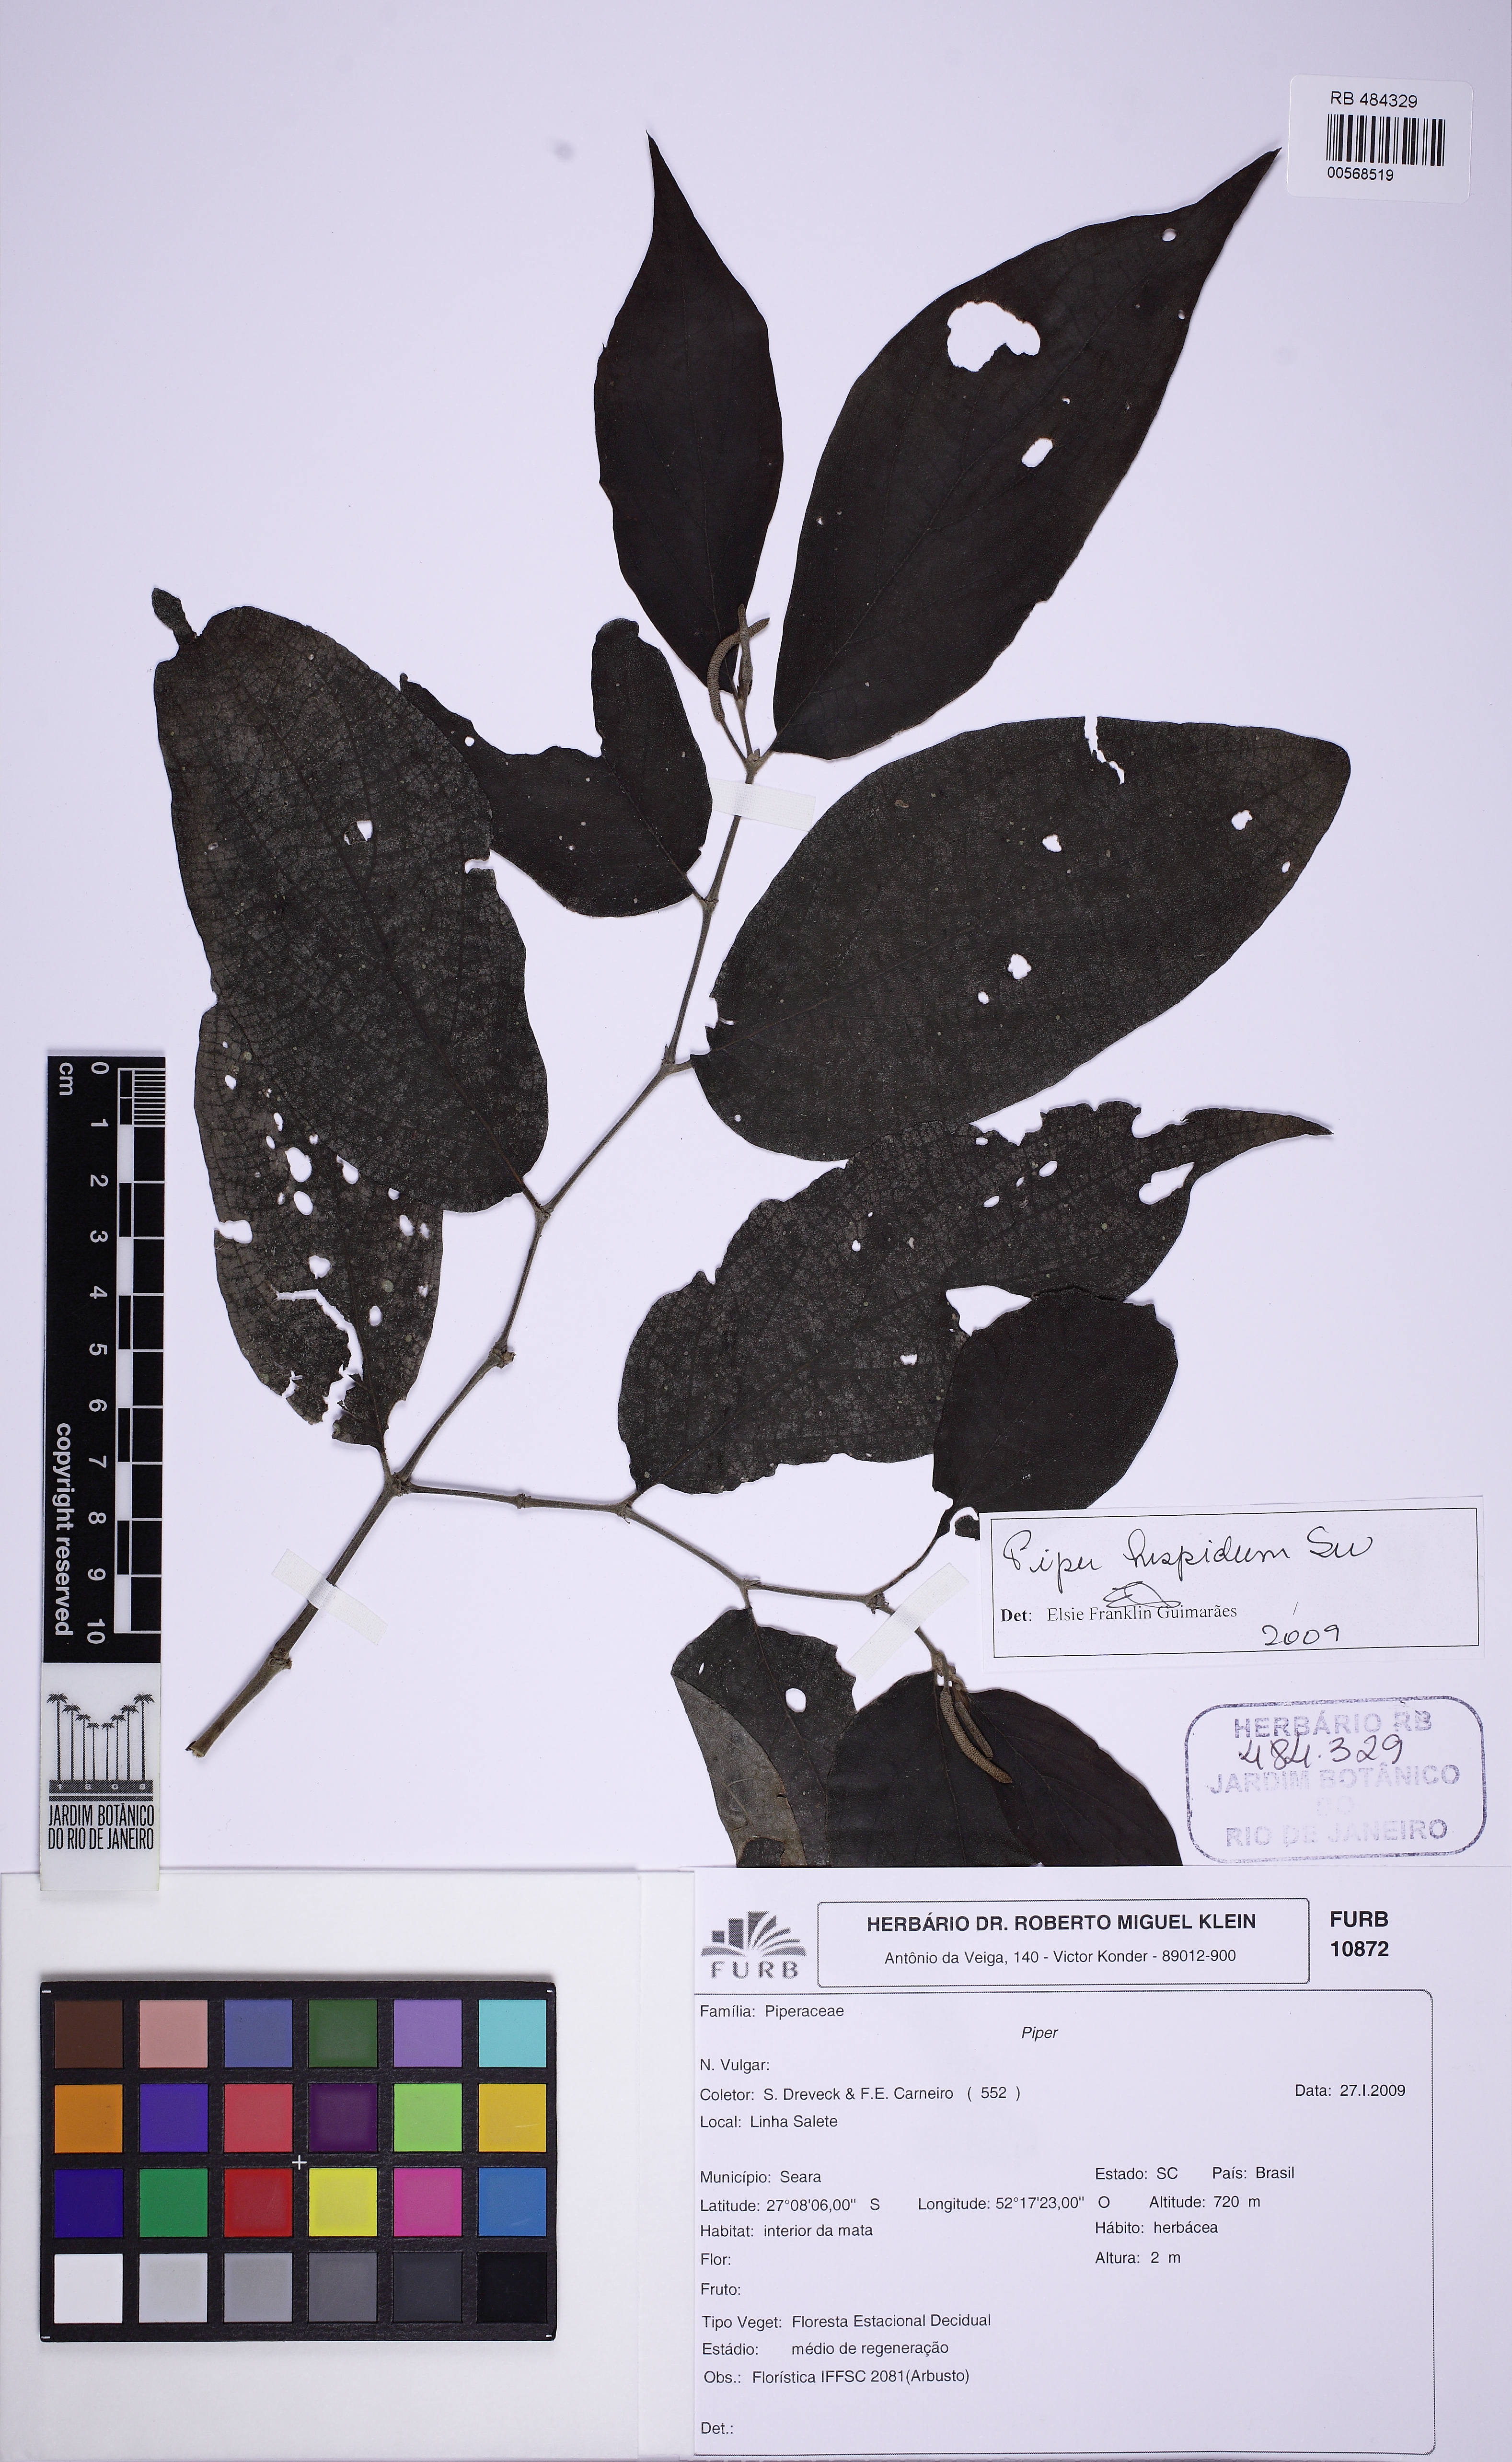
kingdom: Plantae
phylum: Tracheophyta
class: Magnoliopsida
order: Piperales
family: Piperaceae
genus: Piper
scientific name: Piper hispidum
